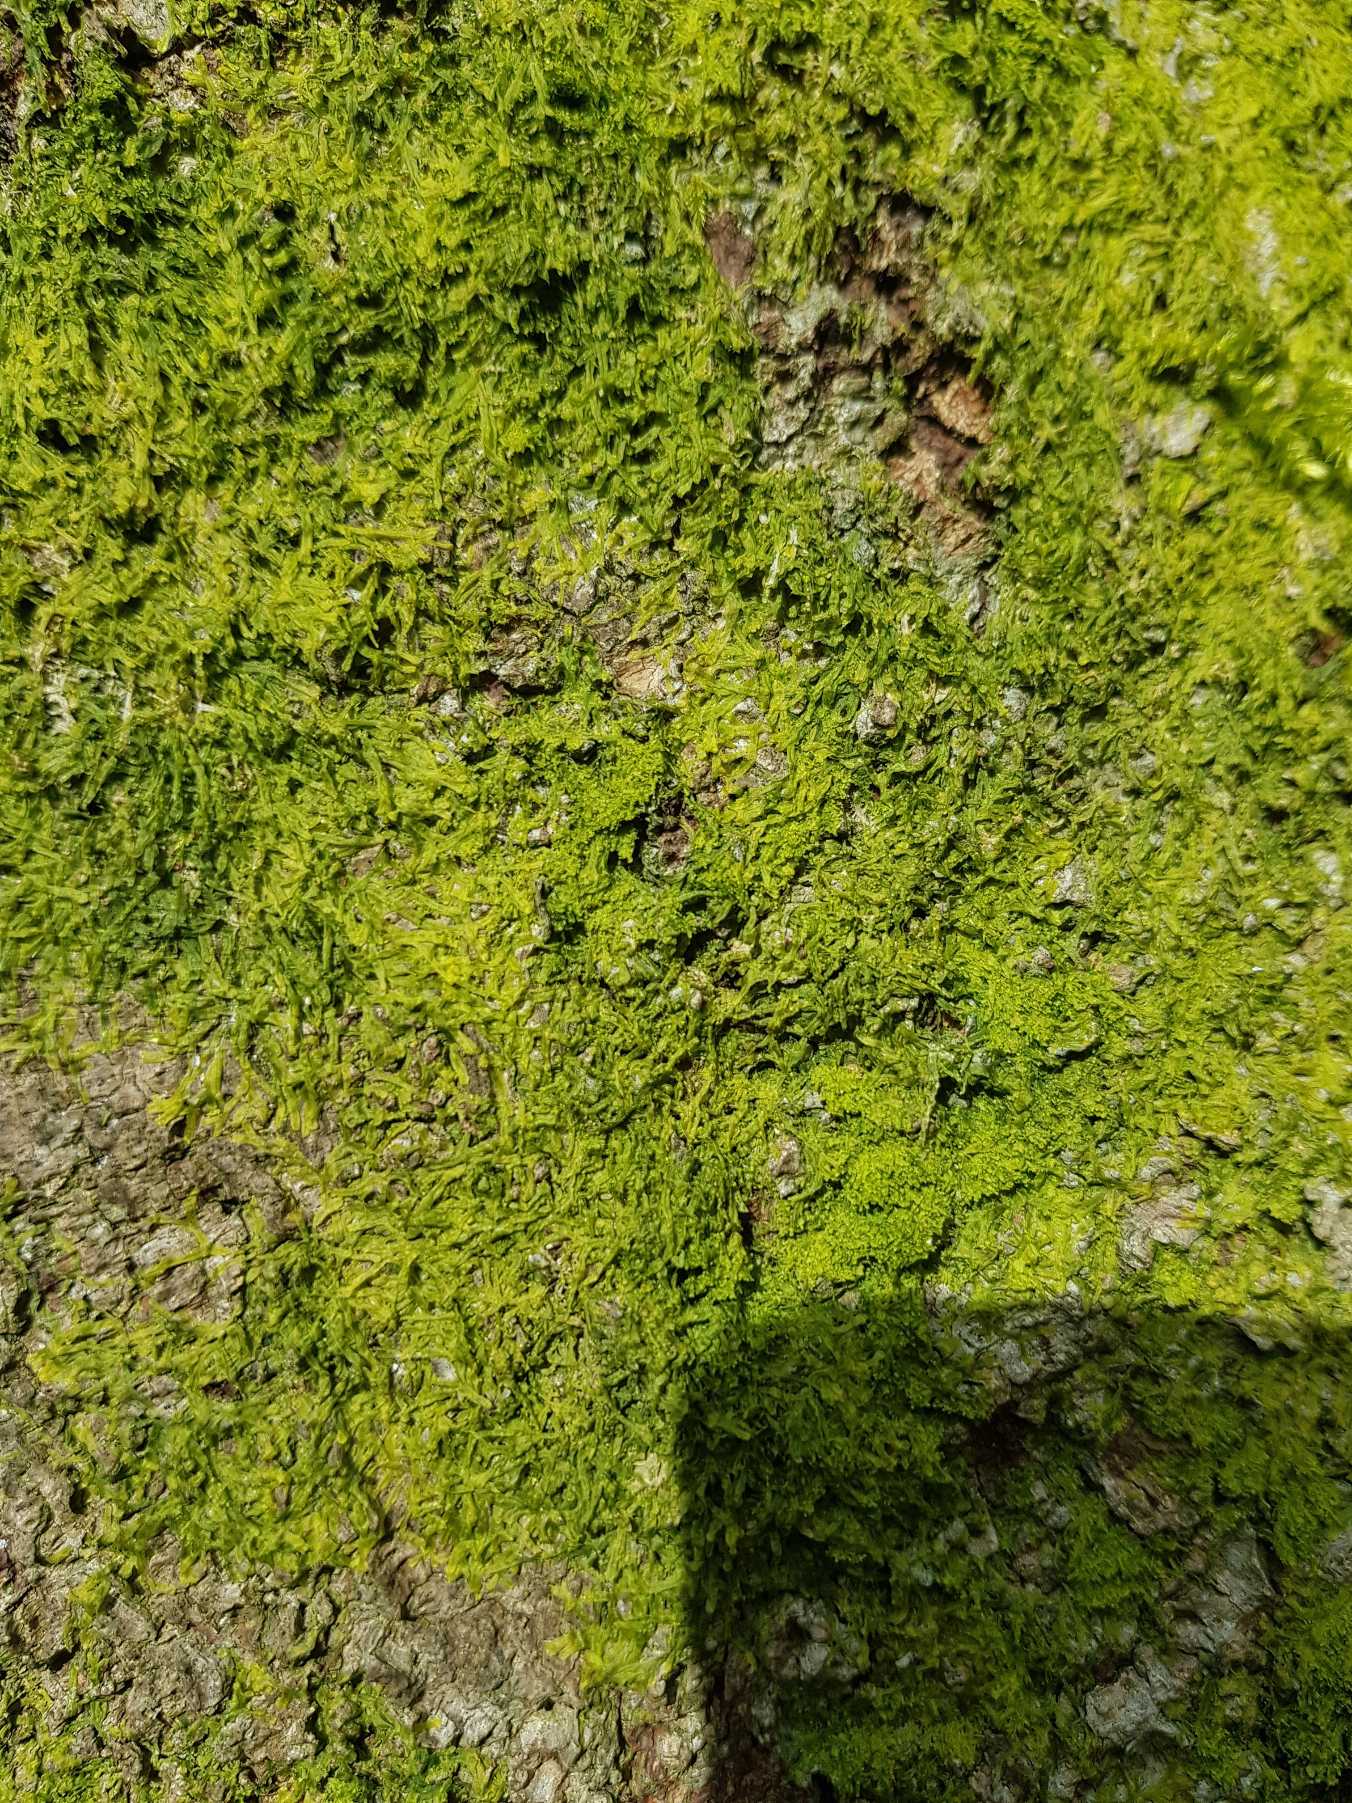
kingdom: Plantae
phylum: Marchantiophyta
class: Jungermanniopsida
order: Metzgeriales
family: Metzgeriaceae
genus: Metzgeria
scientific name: Metzgeria furcata
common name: Almindelig gaffelløv
